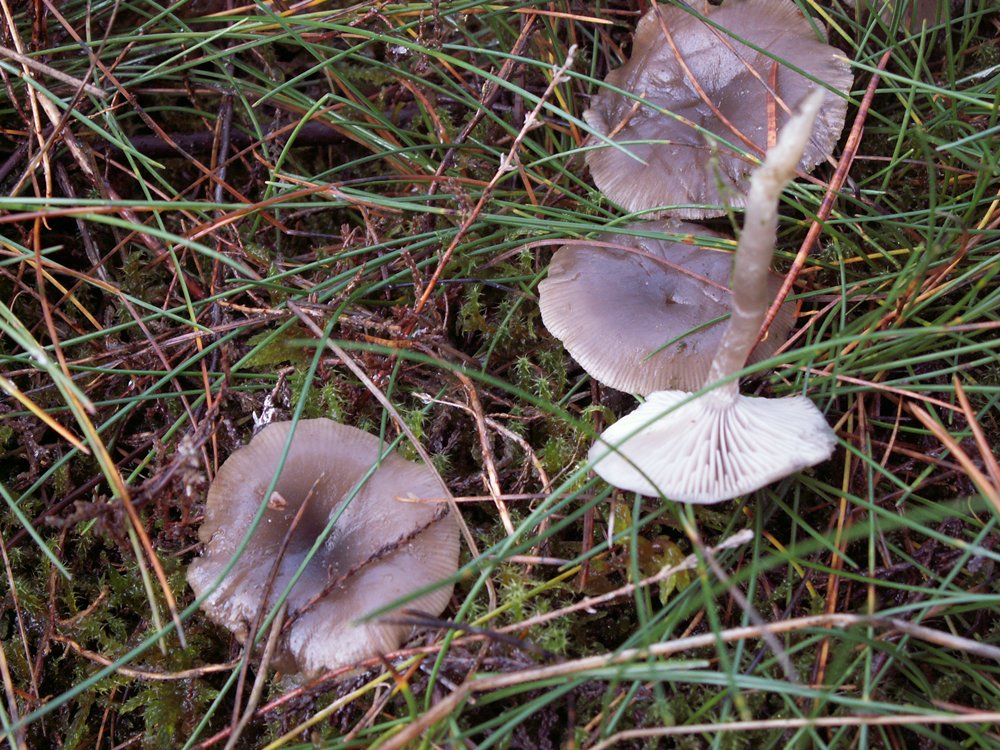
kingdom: Fungi
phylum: Basidiomycota
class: Agaricomycetes
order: Agaricales
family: Tricholomataceae
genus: Clitocybe
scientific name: Clitocybe vibecina
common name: randstribet tragthat
